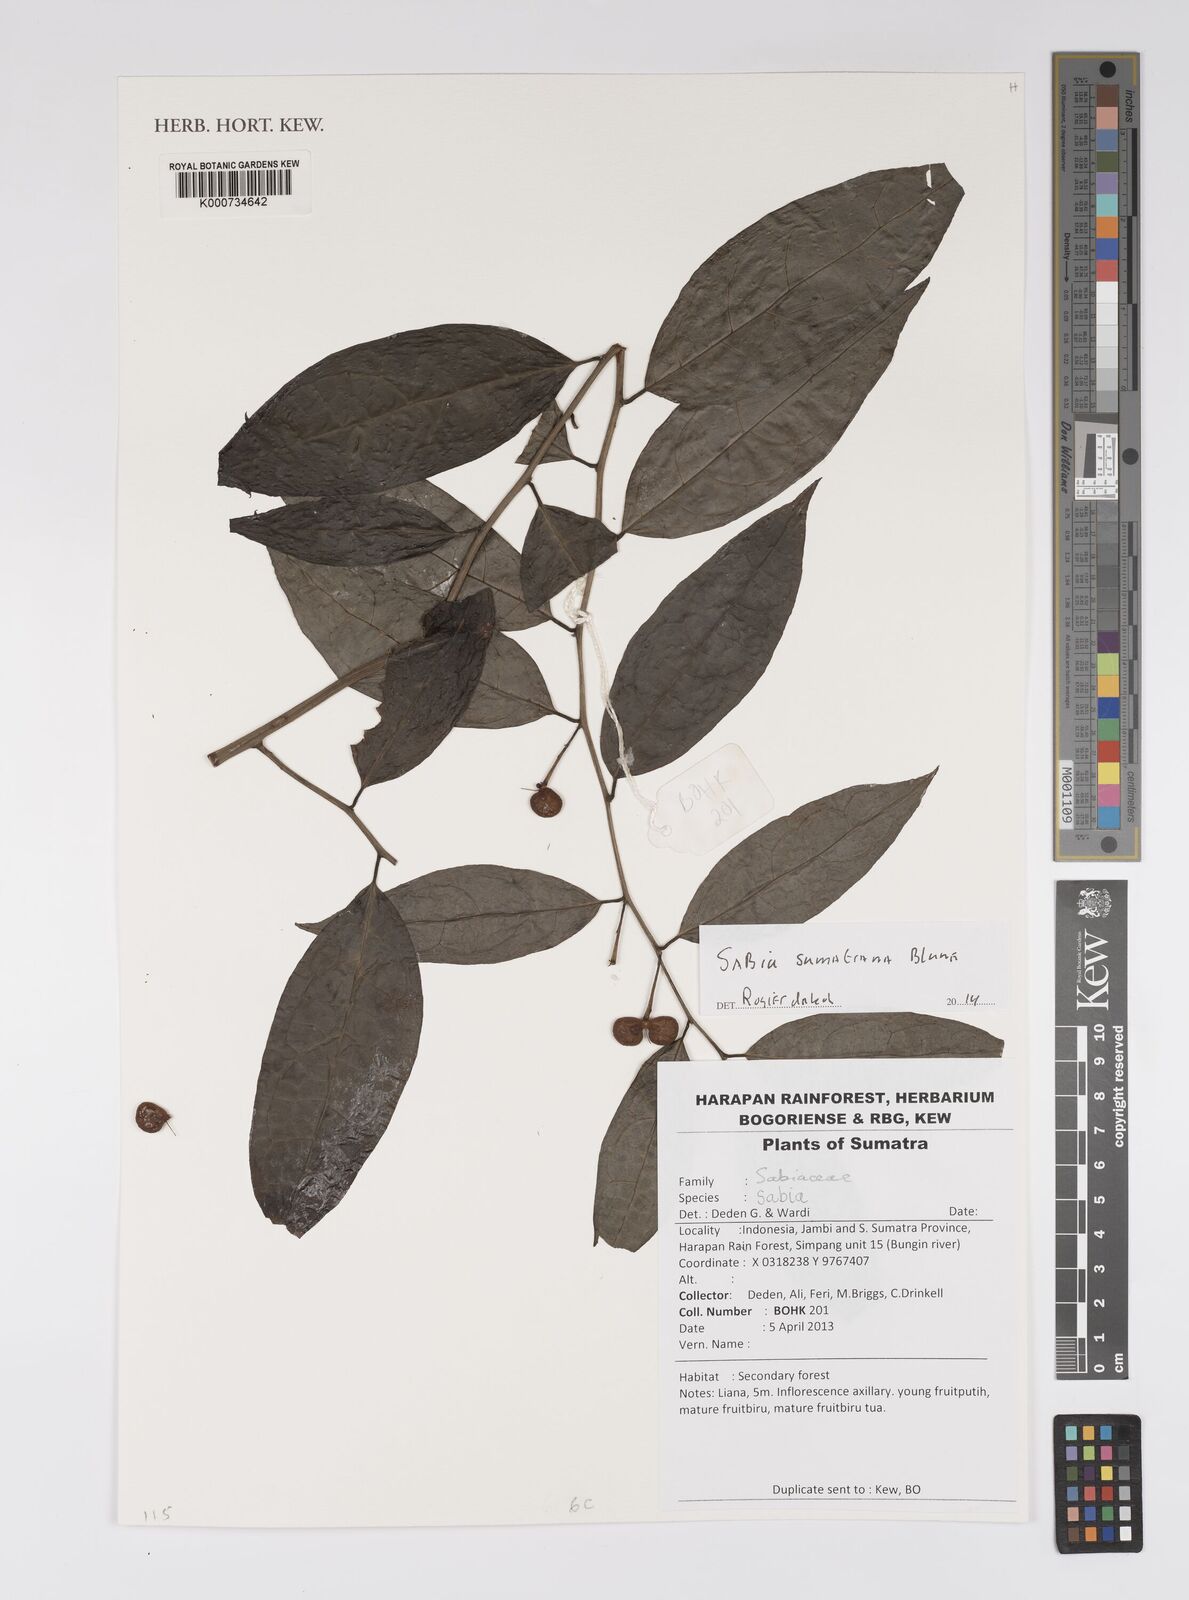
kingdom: Plantae
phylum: Tracheophyta
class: Magnoliopsida
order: Proteales
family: Sabiaceae
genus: Sabia
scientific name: Sabia sumatrana
